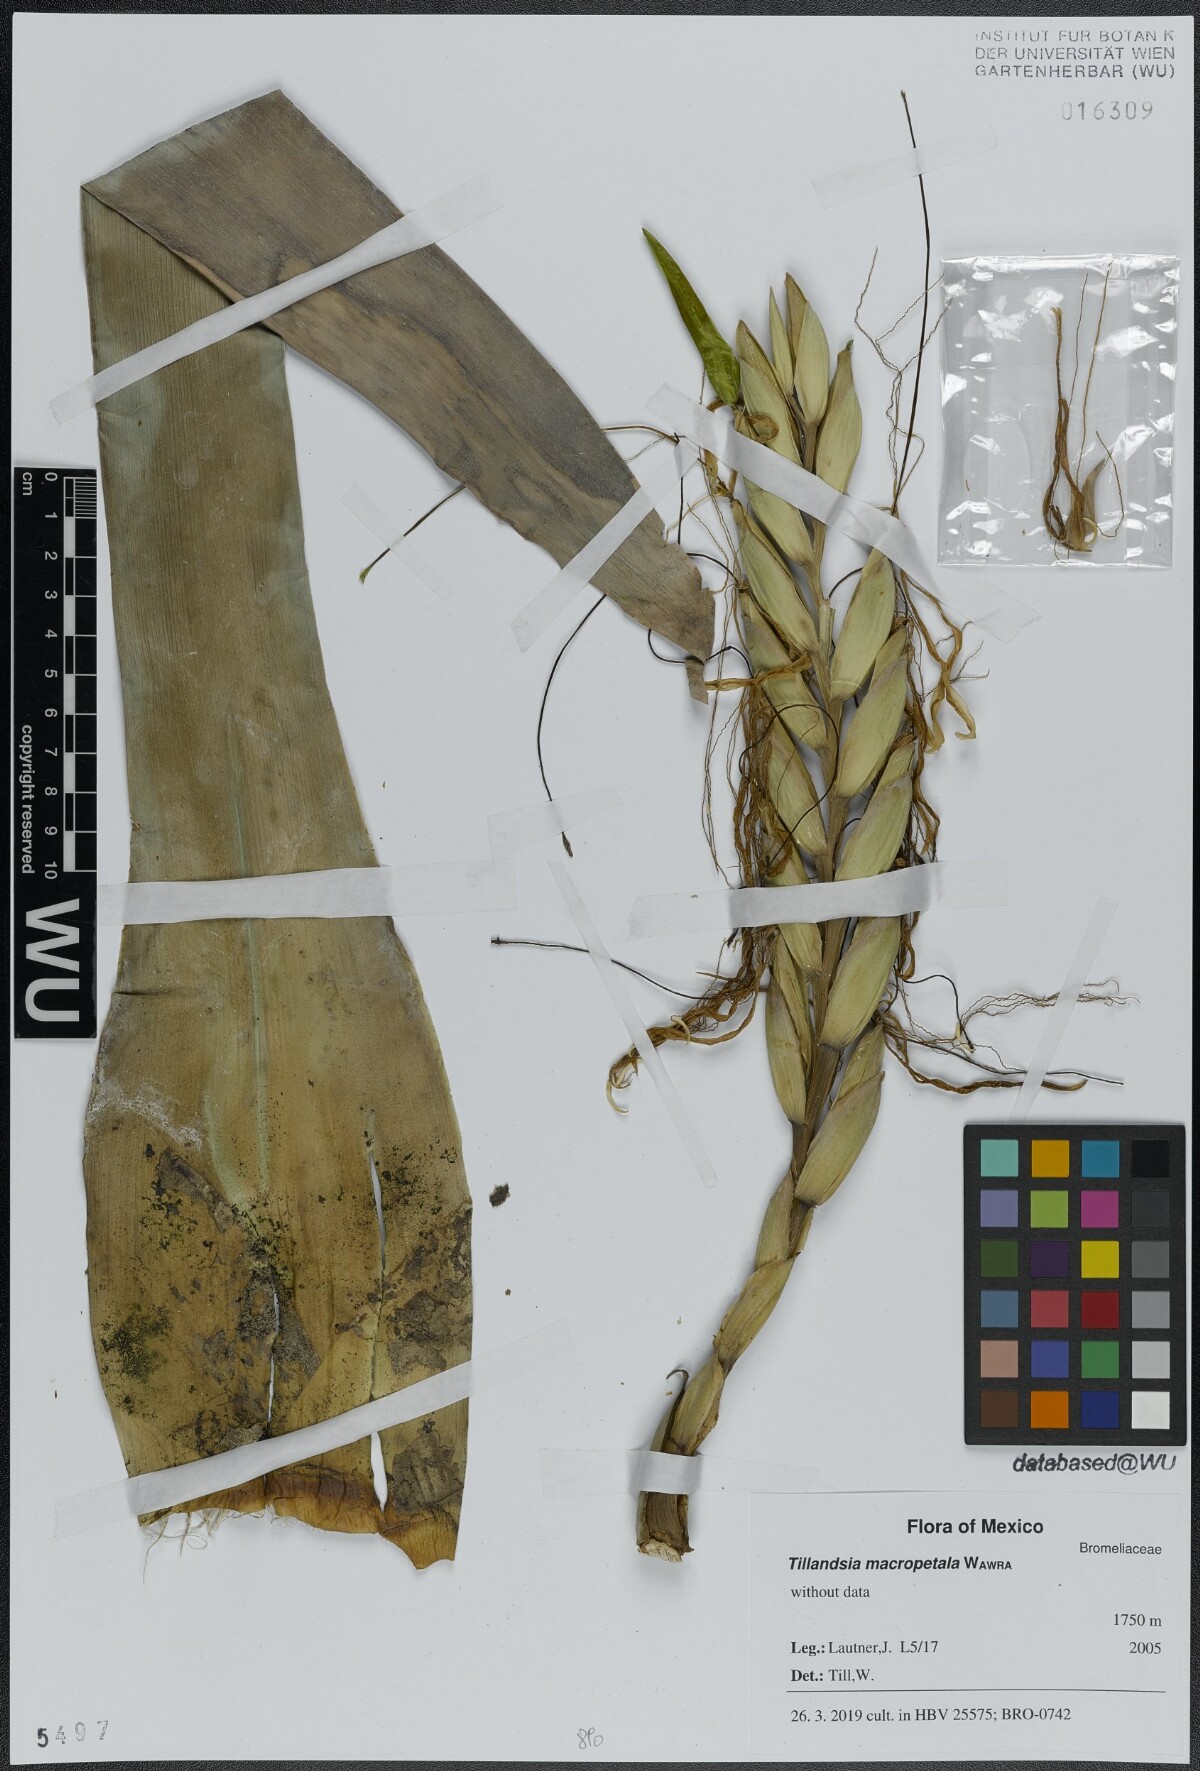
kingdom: Plantae
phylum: Tracheophyta
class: Liliopsida
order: Poales
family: Bromeliaceae
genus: Pseudalcantarea
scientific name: Pseudalcantarea macropetala
